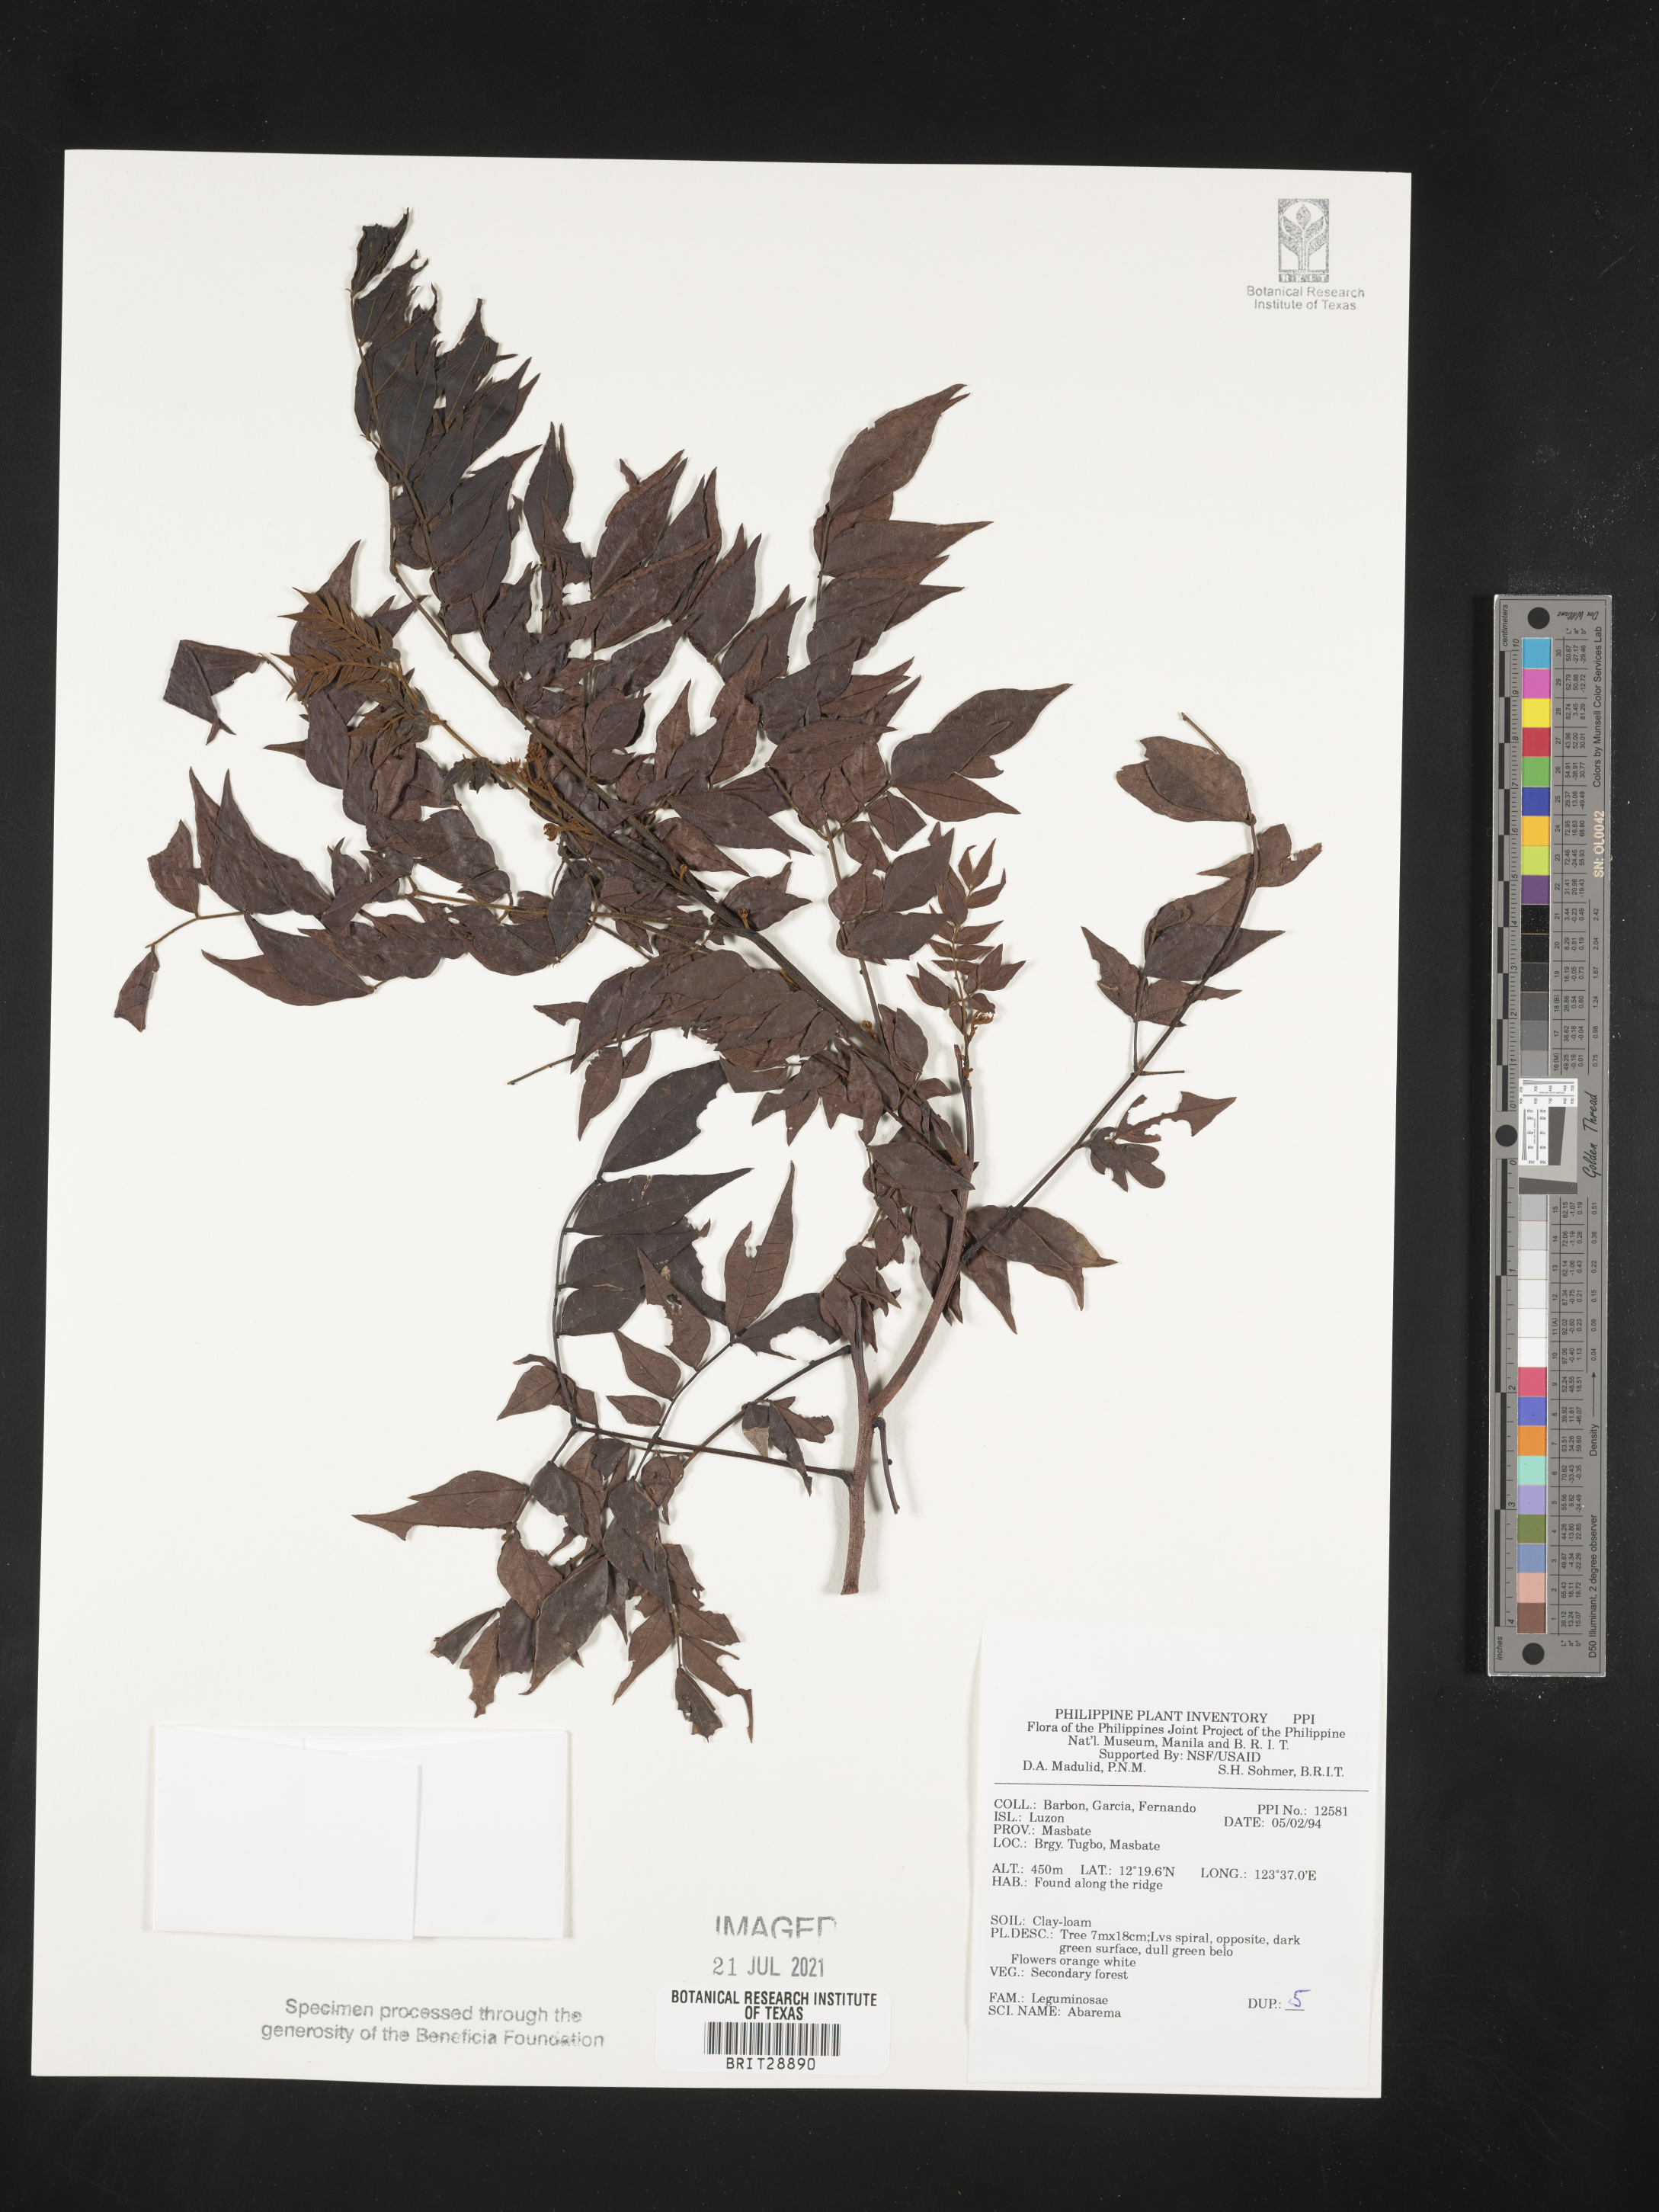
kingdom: Plantae
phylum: Tracheophyta
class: Magnoliopsida
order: Fabales
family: Fabaceae
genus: Abarema
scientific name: Abarema
